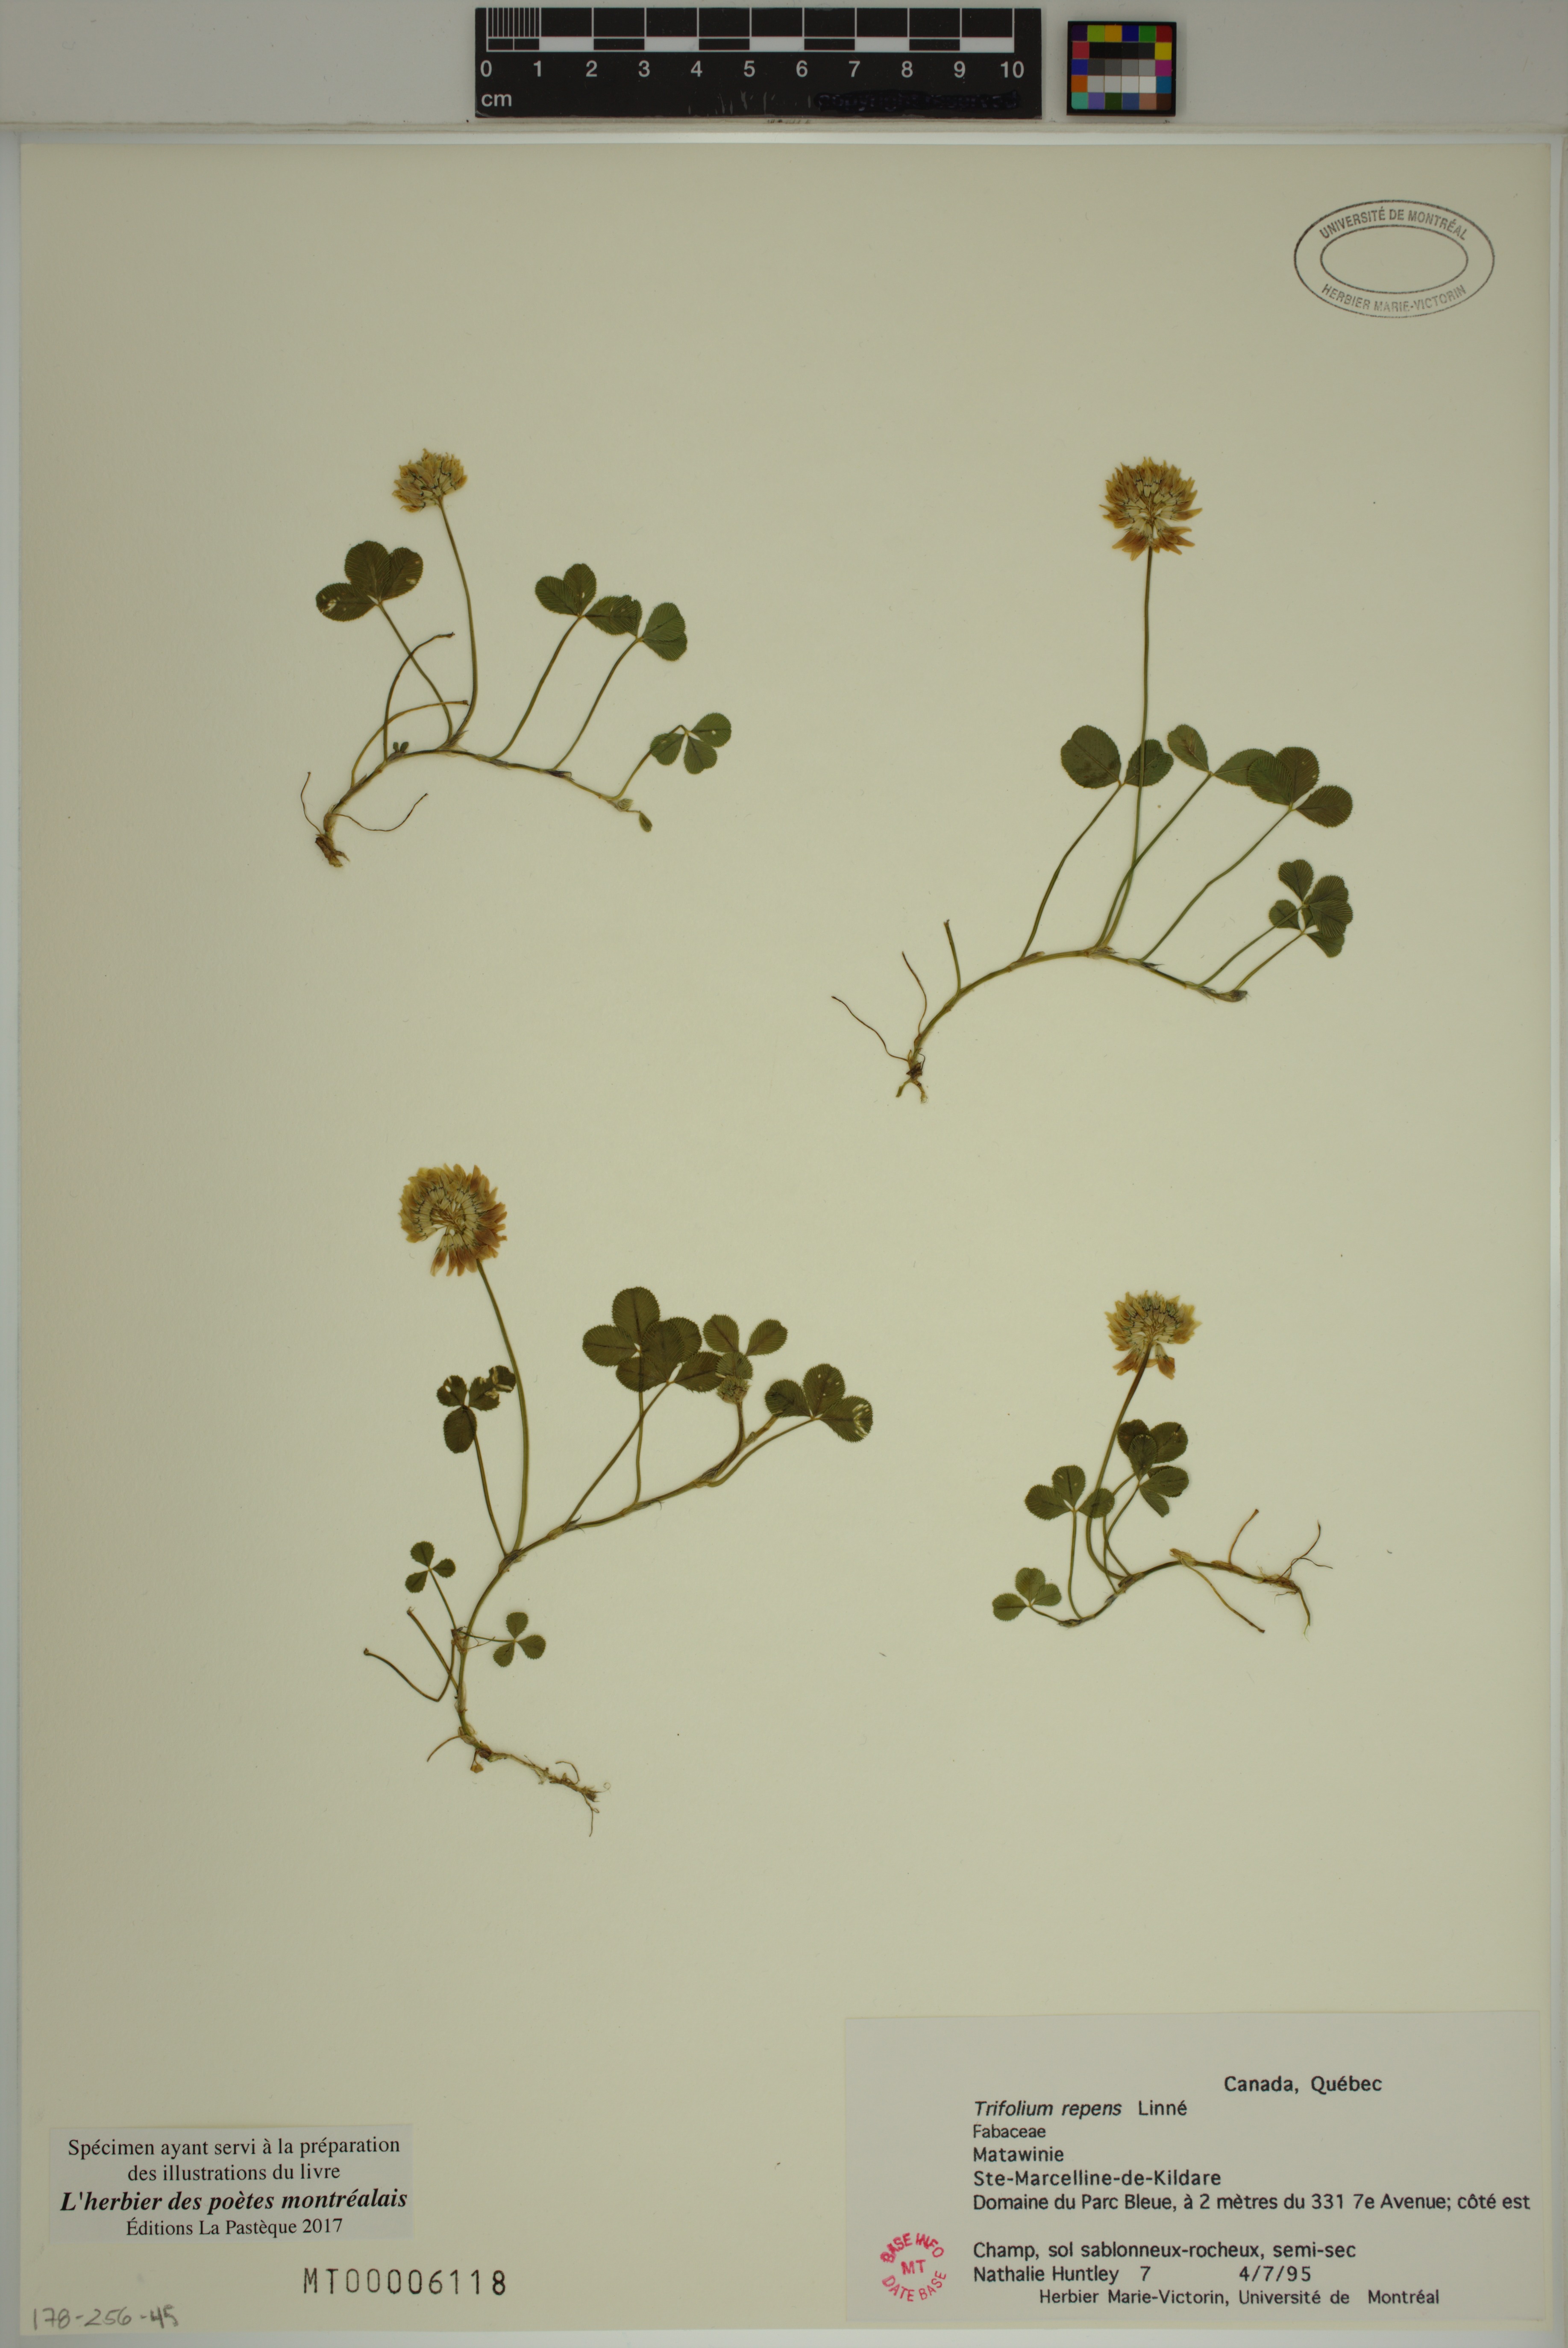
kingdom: Plantae
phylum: Tracheophyta
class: Magnoliopsida
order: Fabales
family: Fabaceae
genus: Trifolium
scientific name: Trifolium repens
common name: White clover
